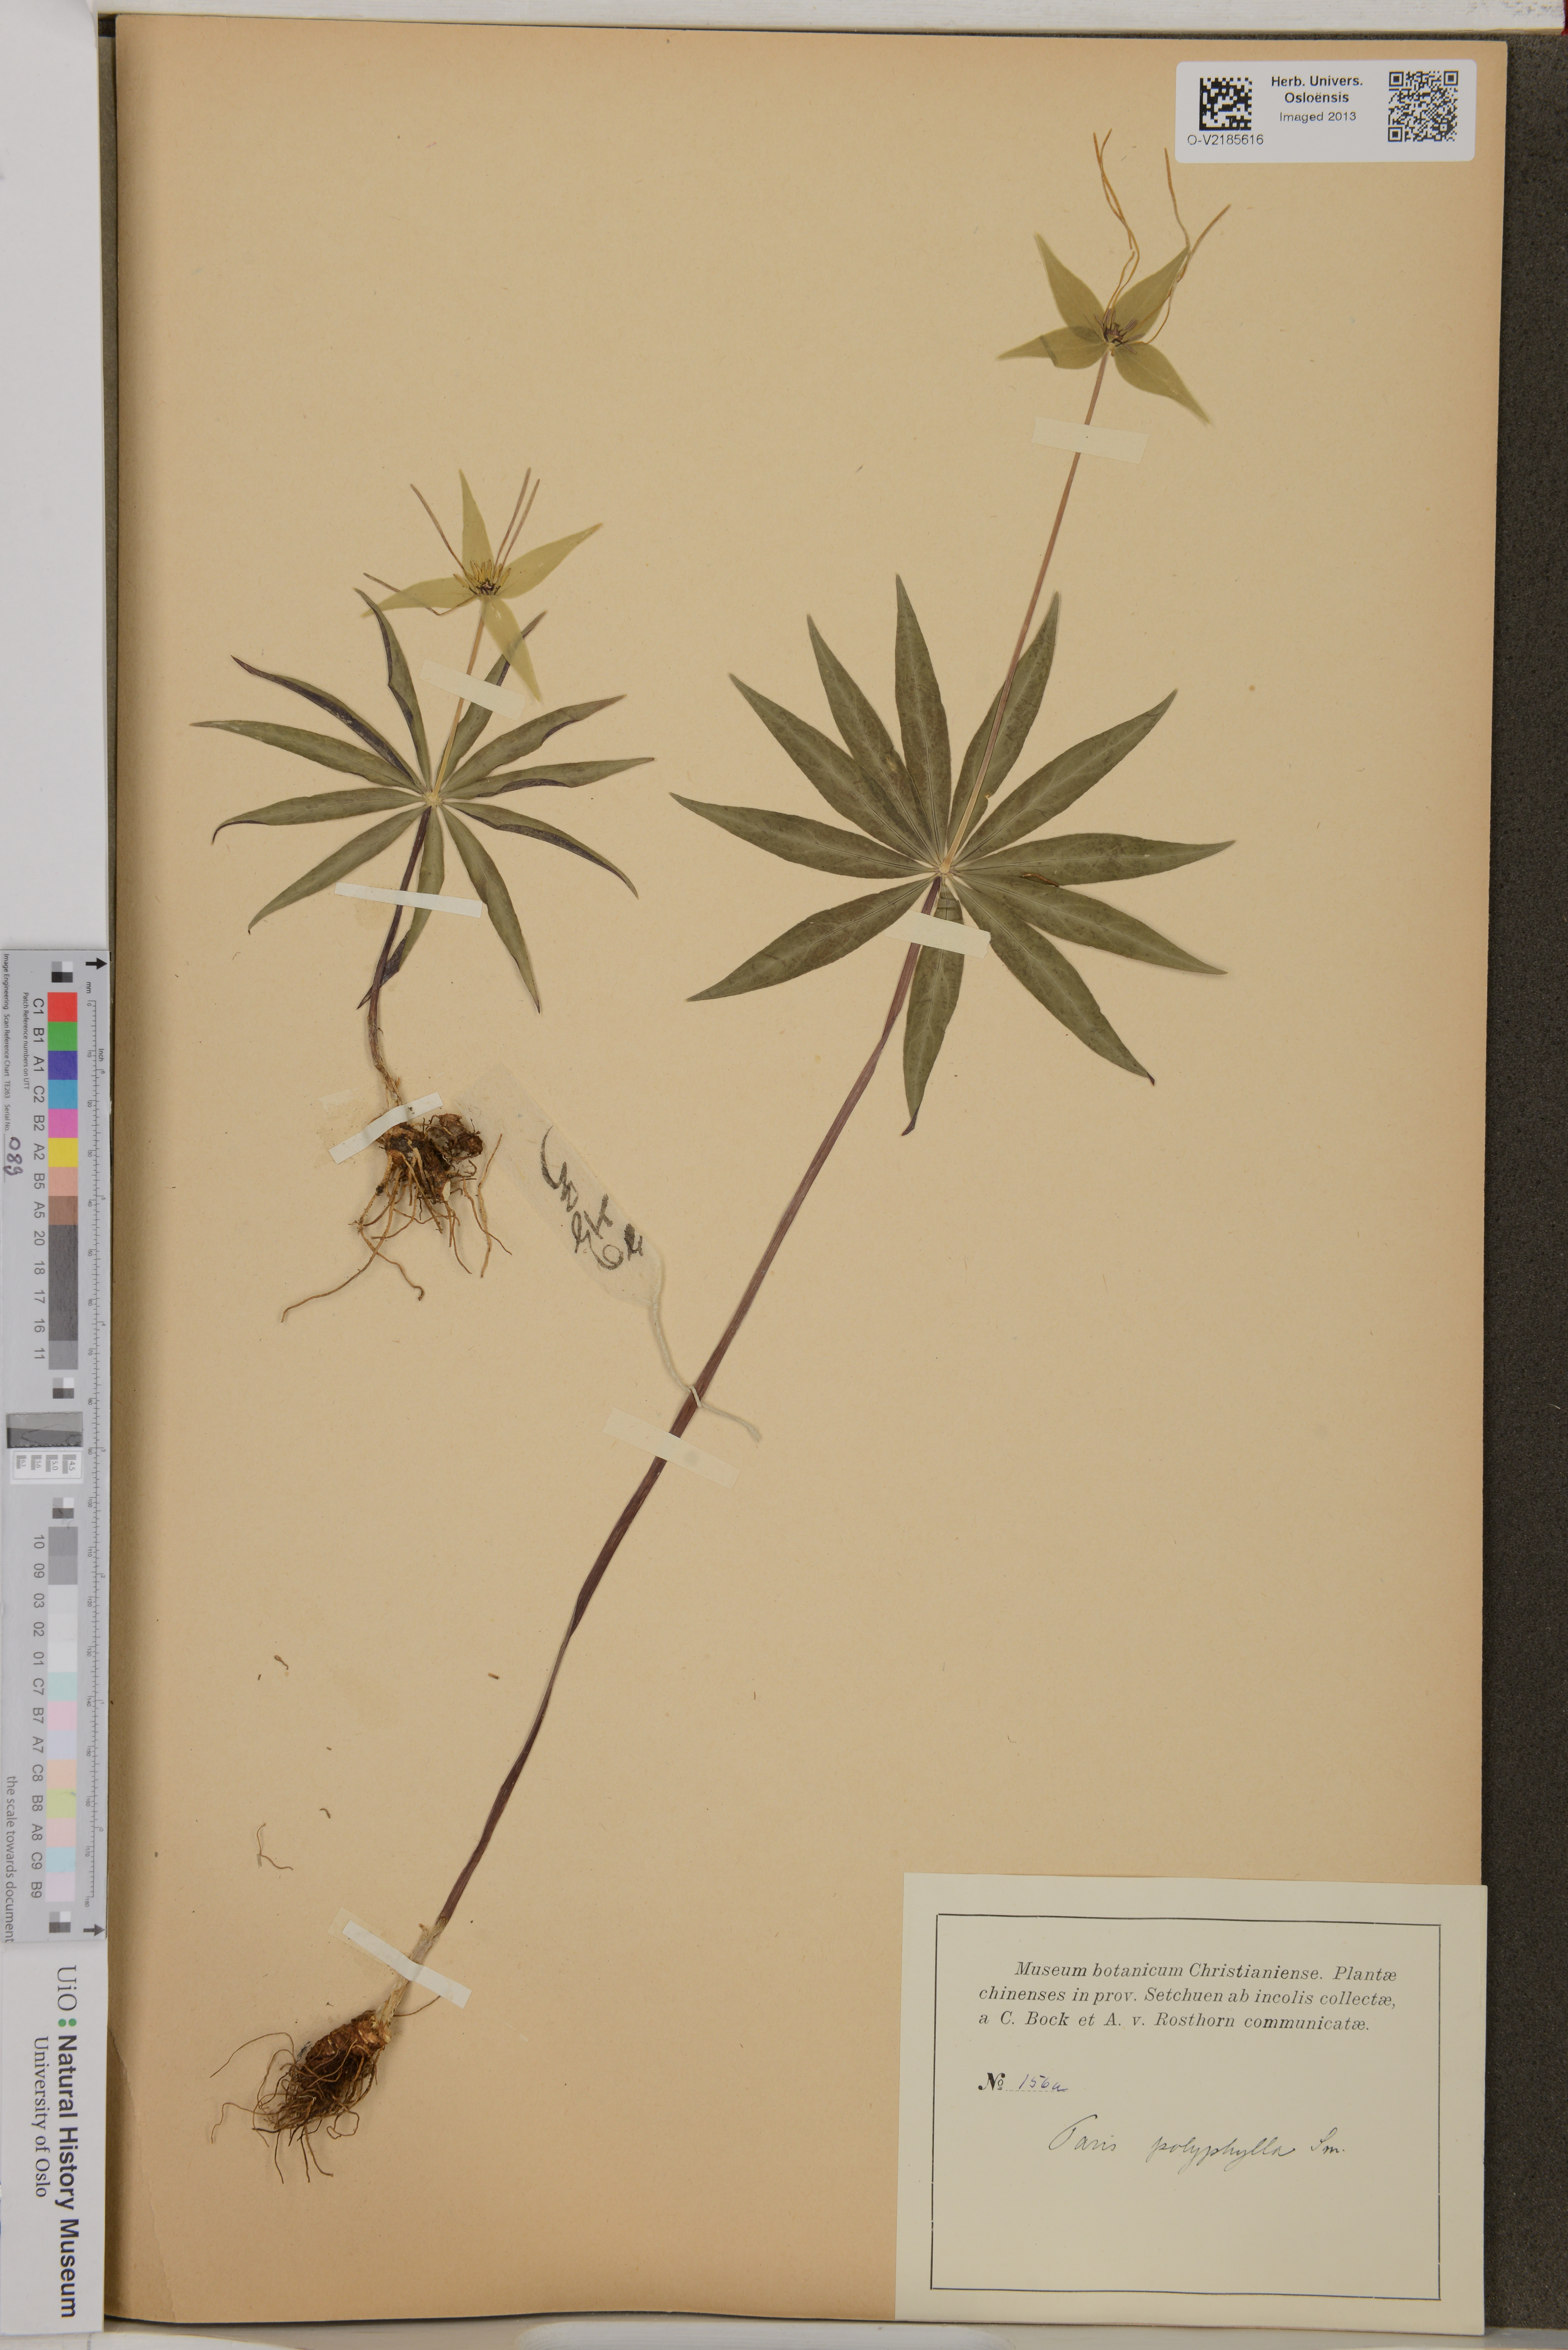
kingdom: Plantae
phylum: Tracheophyta
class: Liliopsida
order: Liliales
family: Melanthiaceae
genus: Paris
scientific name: Paris polyphylla
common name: Love apple
